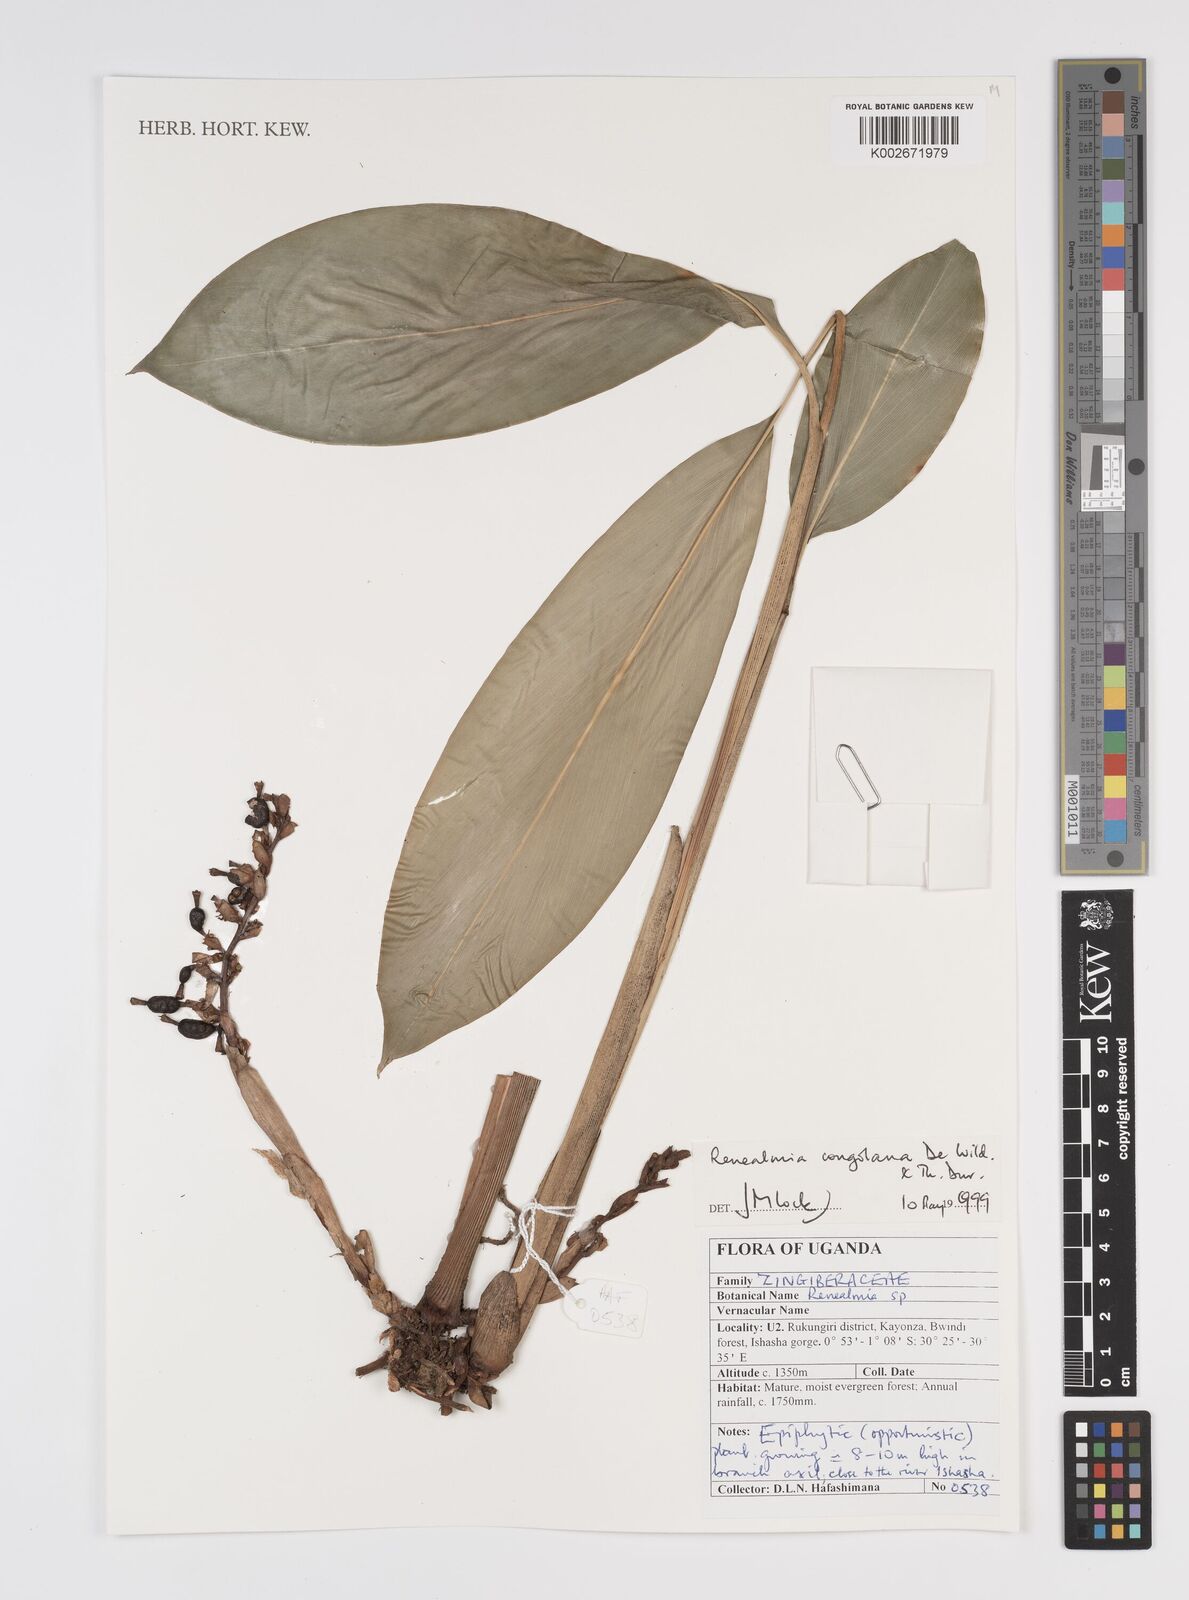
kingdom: Plantae
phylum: Tracheophyta
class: Liliopsida
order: Zingiberales
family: Zingiberaceae
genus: Renealmia
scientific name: Renealmia congolana
